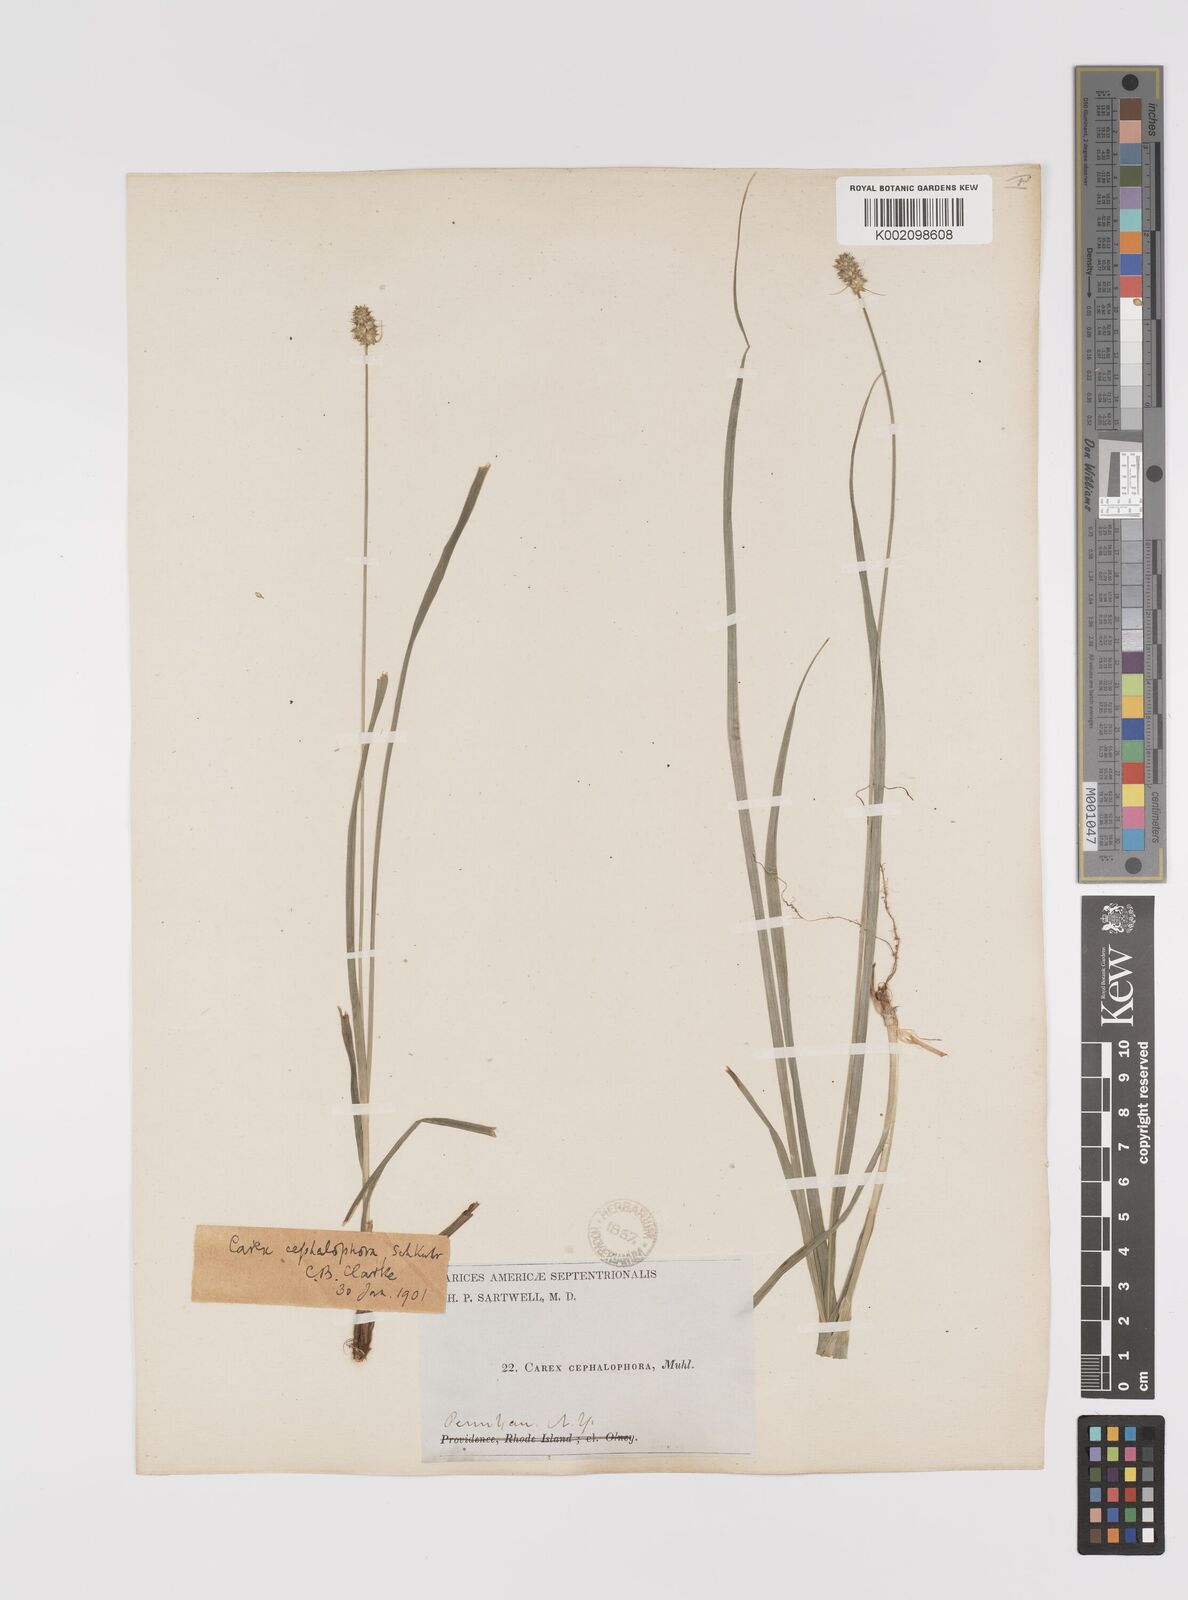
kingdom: Plantae
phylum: Tracheophyta
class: Liliopsida
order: Poales
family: Cyperaceae
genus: Carex
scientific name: Carex cephalophora
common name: Oval-headed sedge
